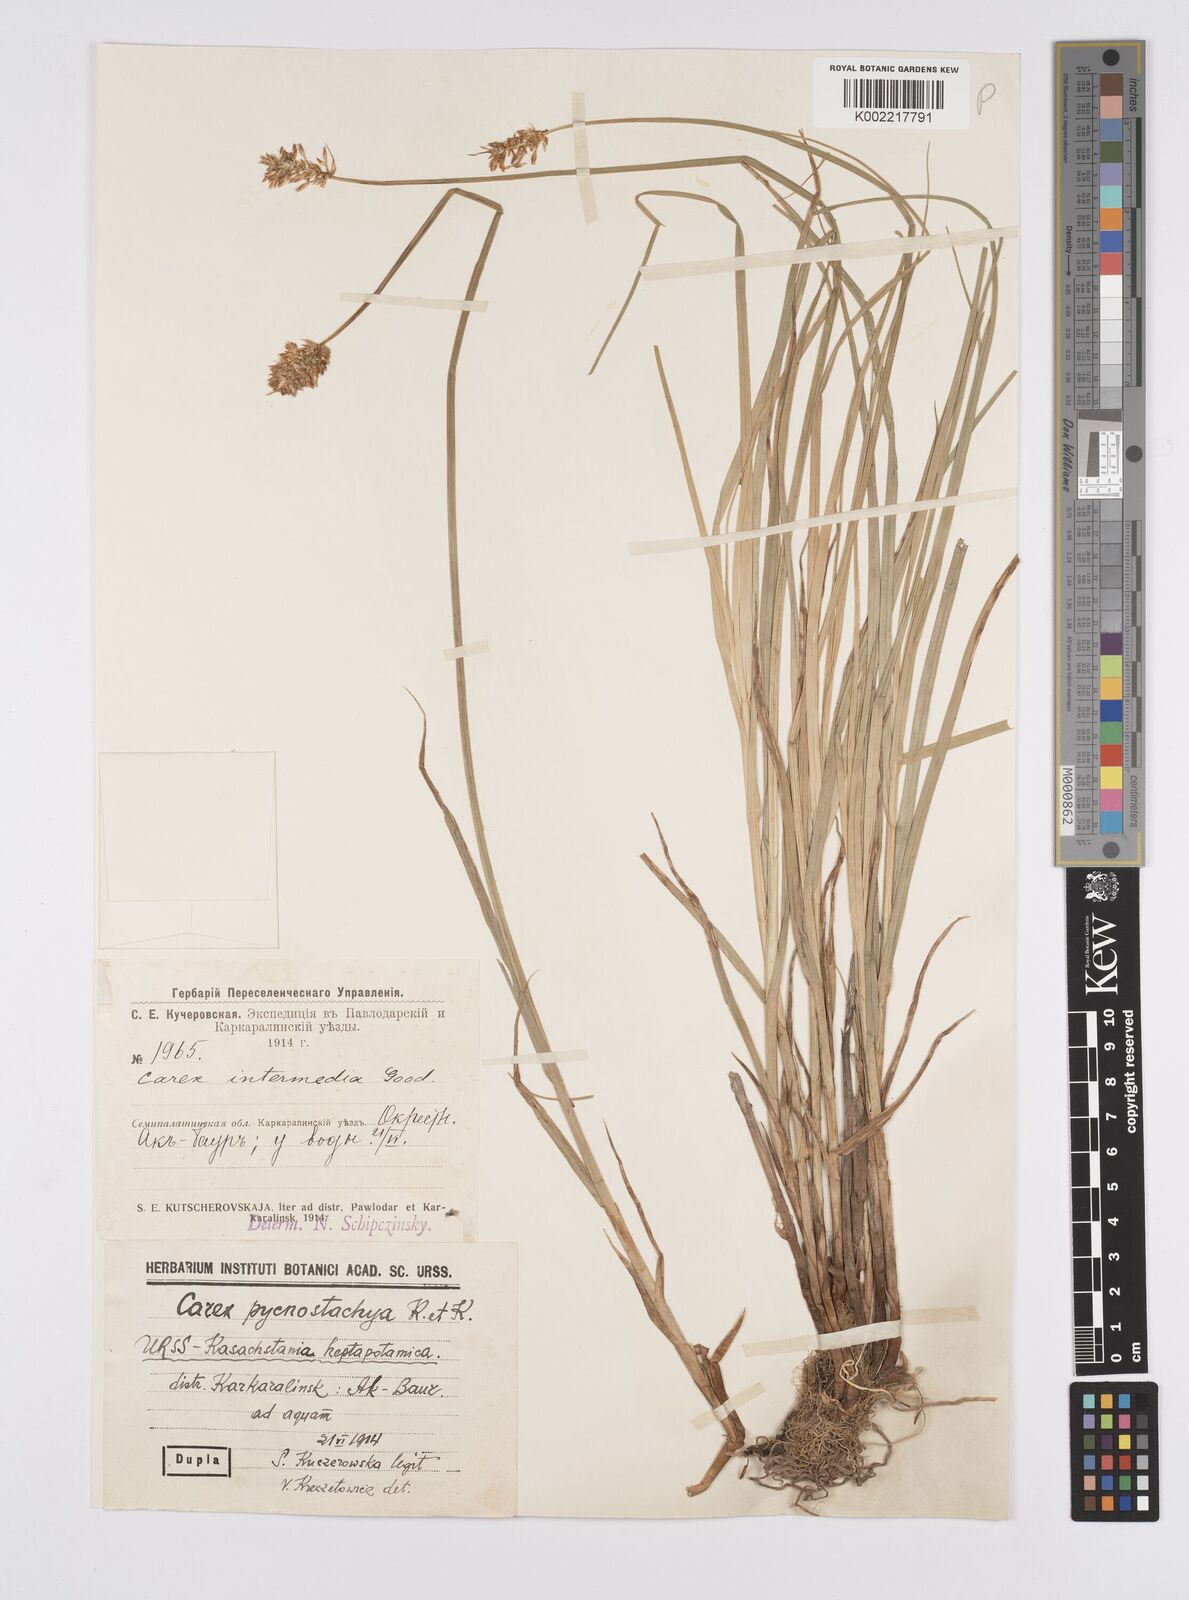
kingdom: Plantae
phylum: Tracheophyta
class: Liliopsida
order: Poales
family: Cyperaceae
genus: Carex
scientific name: Carex curaica
